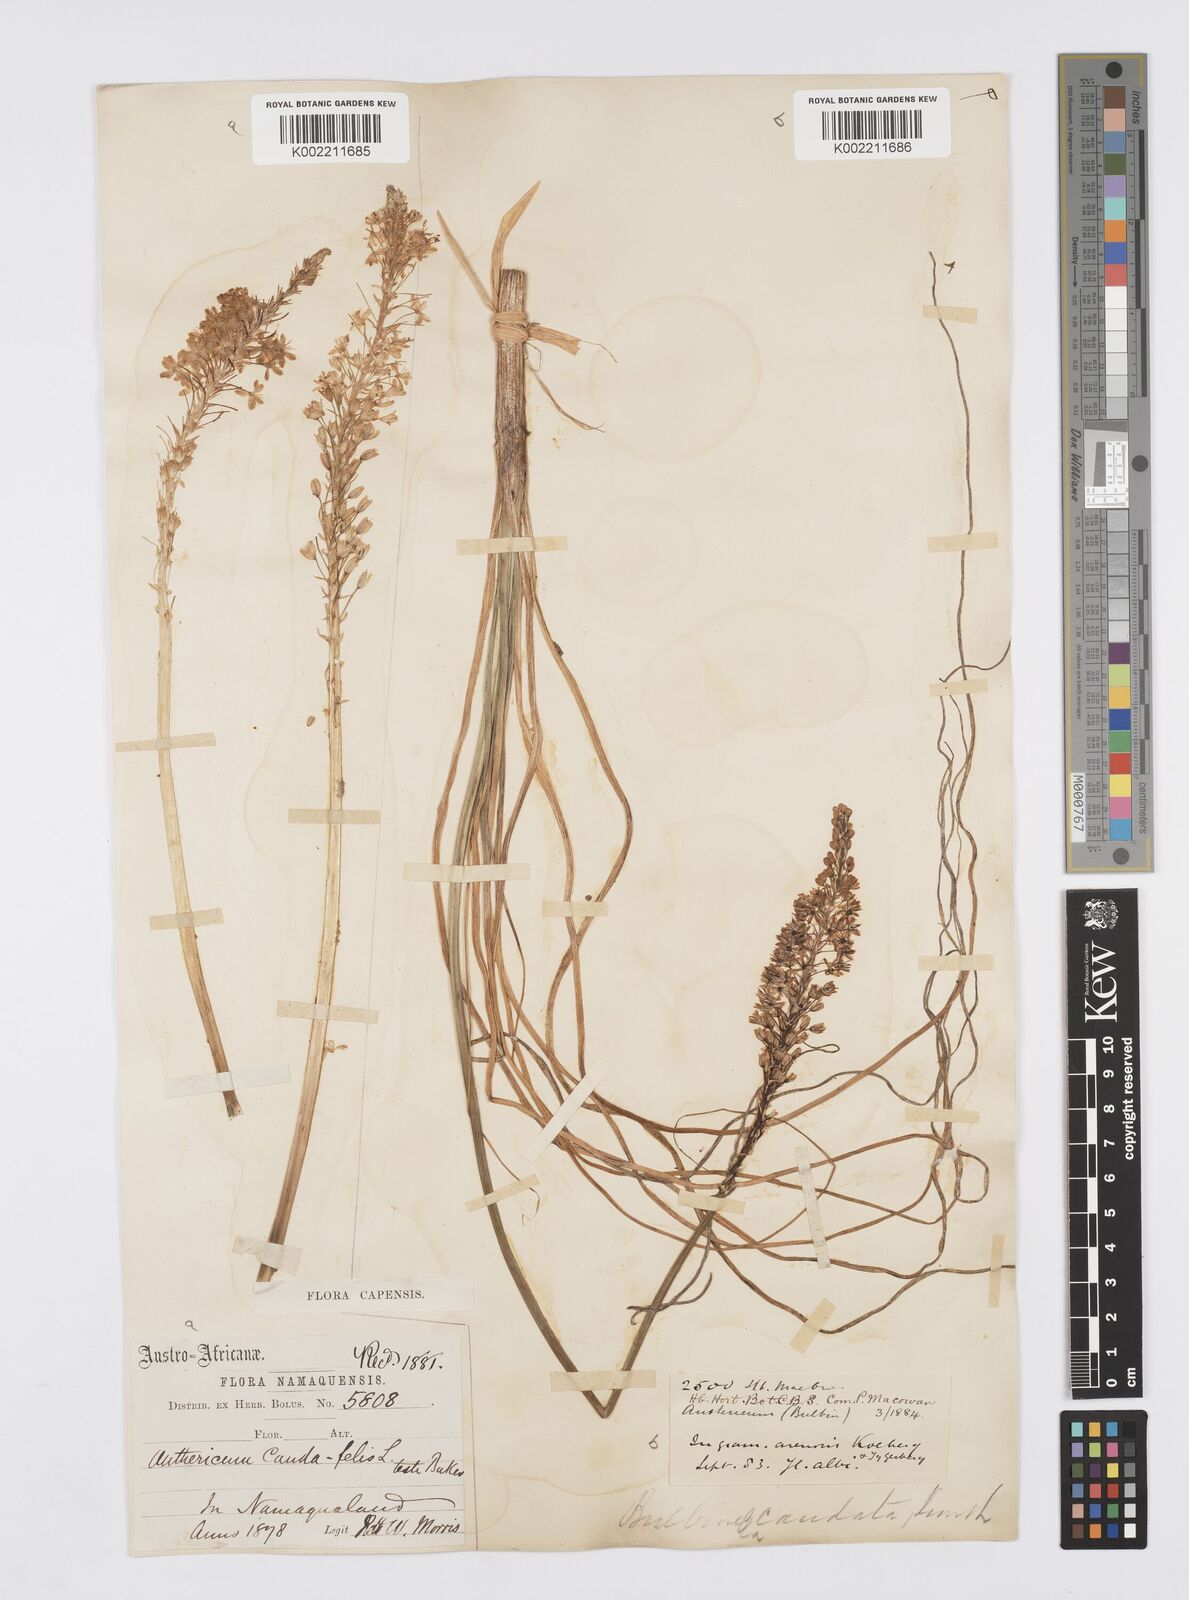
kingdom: Plantae
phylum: Tracheophyta
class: Liliopsida
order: Asparagales
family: Asphodelaceae
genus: Bulbinella
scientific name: Bulbinella cauda-felis
